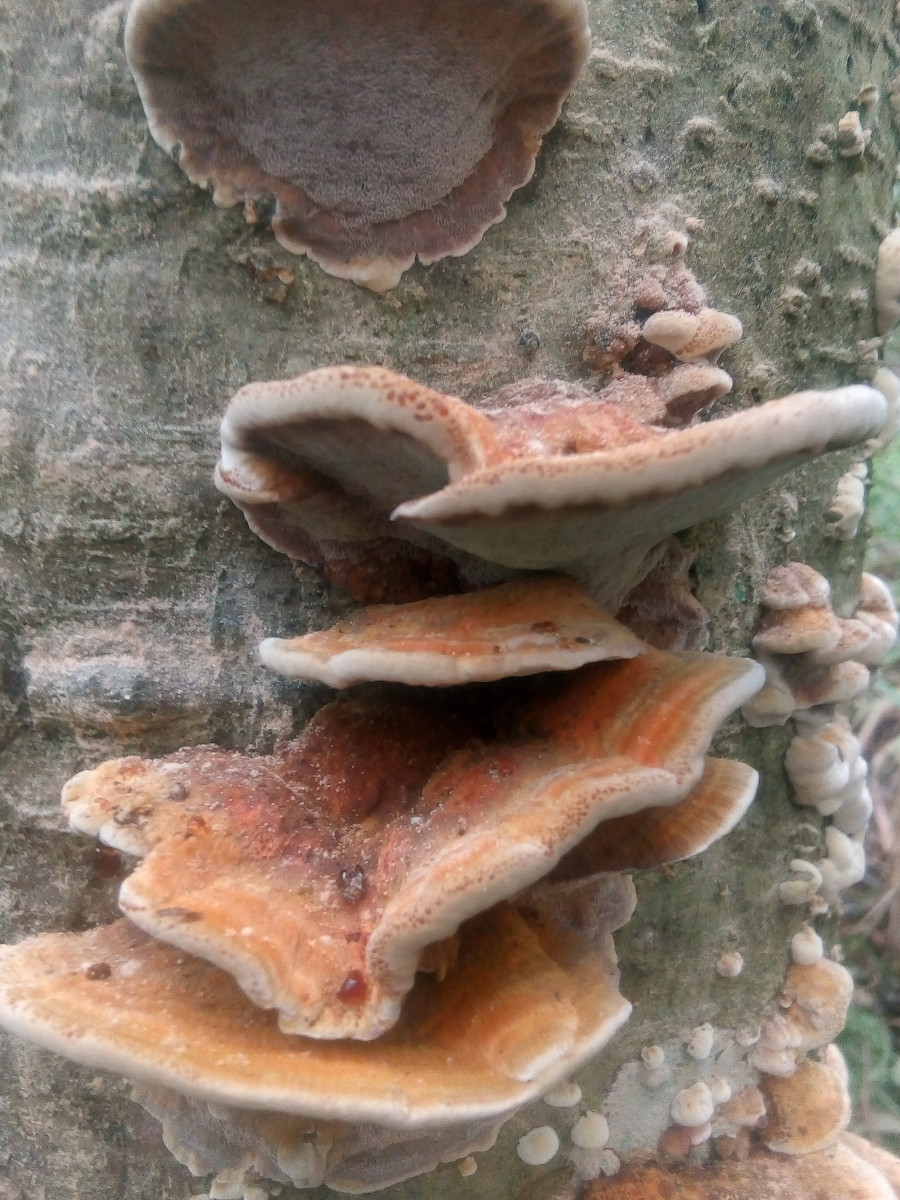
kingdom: Fungi
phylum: Basidiomycota
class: Agaricomycetes
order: Hymenochaetales
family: Hymenochaetaceae
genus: Xanthoporia
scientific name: Xanthoporia radiata
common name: elle-spejlporesvamp
